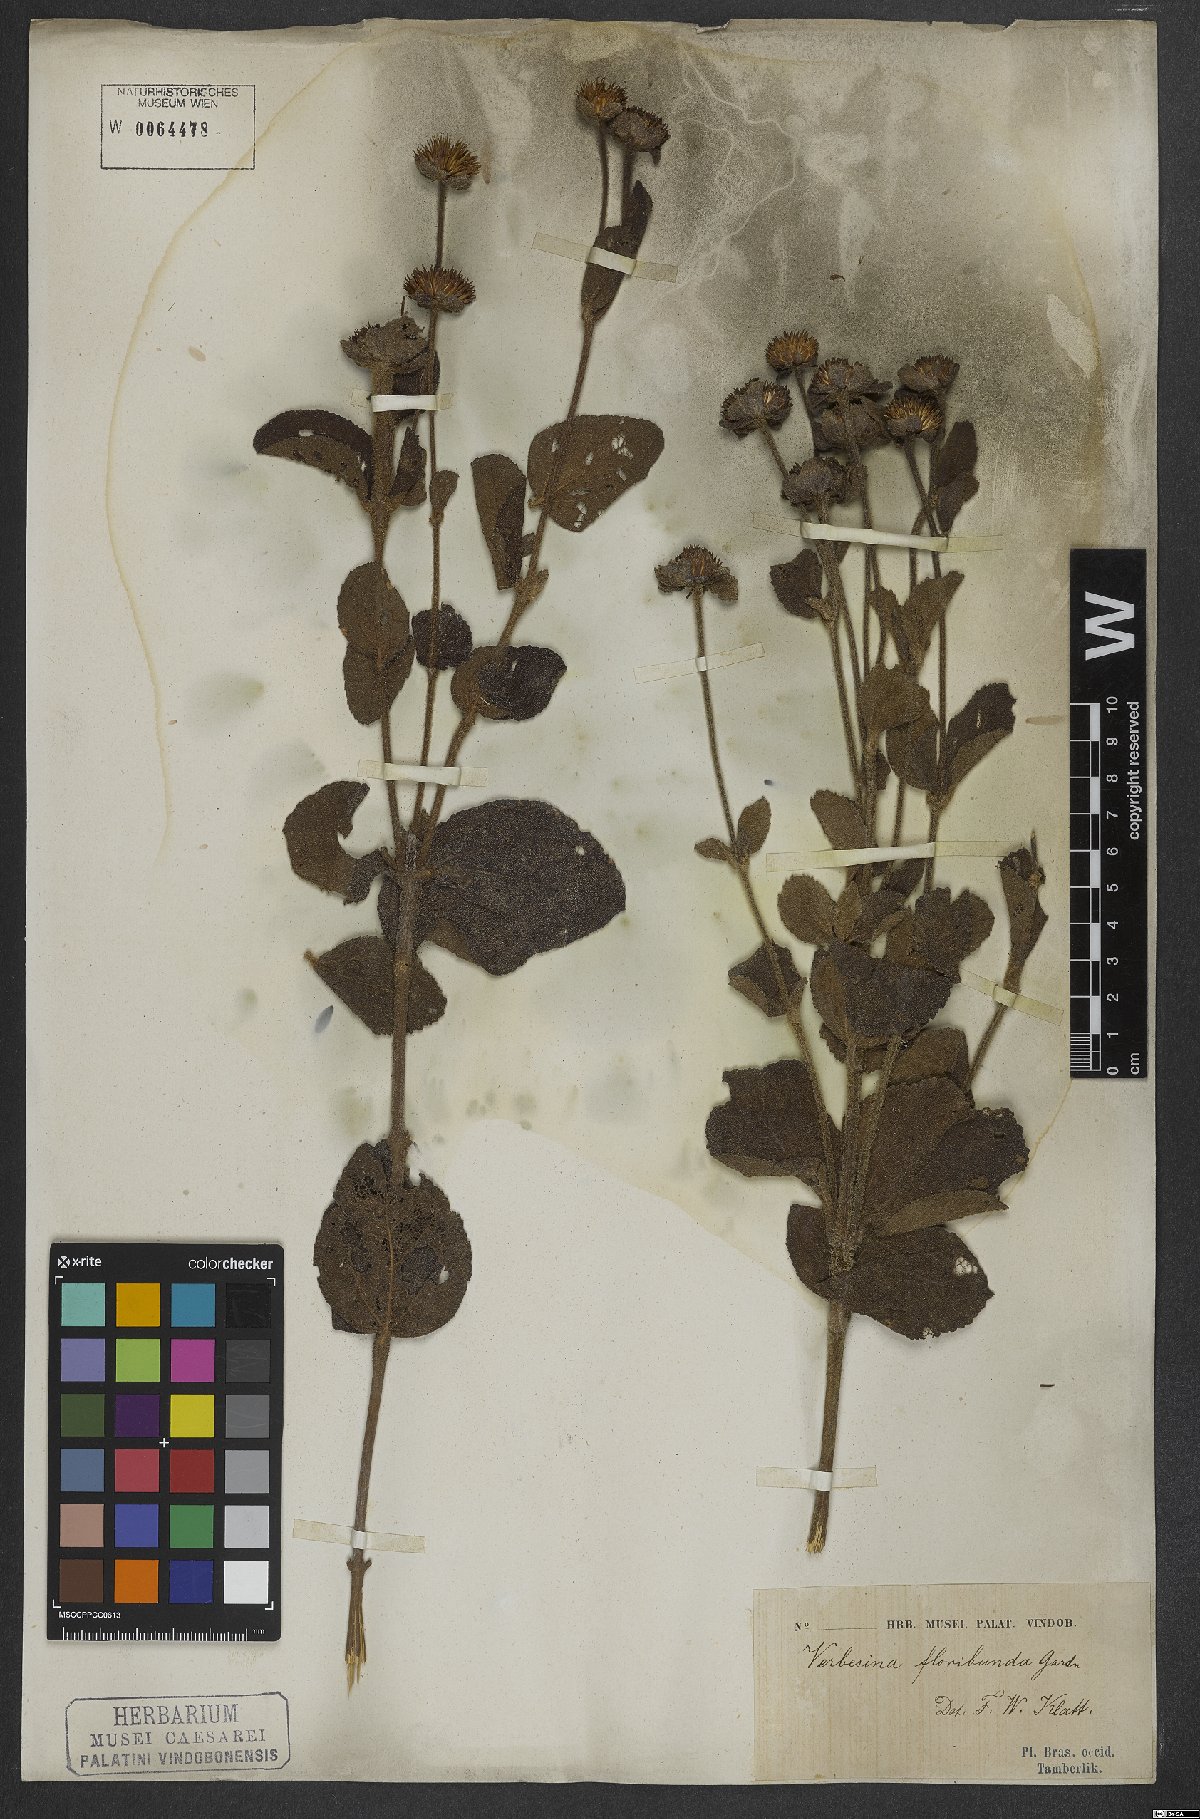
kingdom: Plantae
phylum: Tracheophyta
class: Magnoliopsida
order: Asterales
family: Asteraceae
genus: Critoniopsis
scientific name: Critoniopsis floribunda
